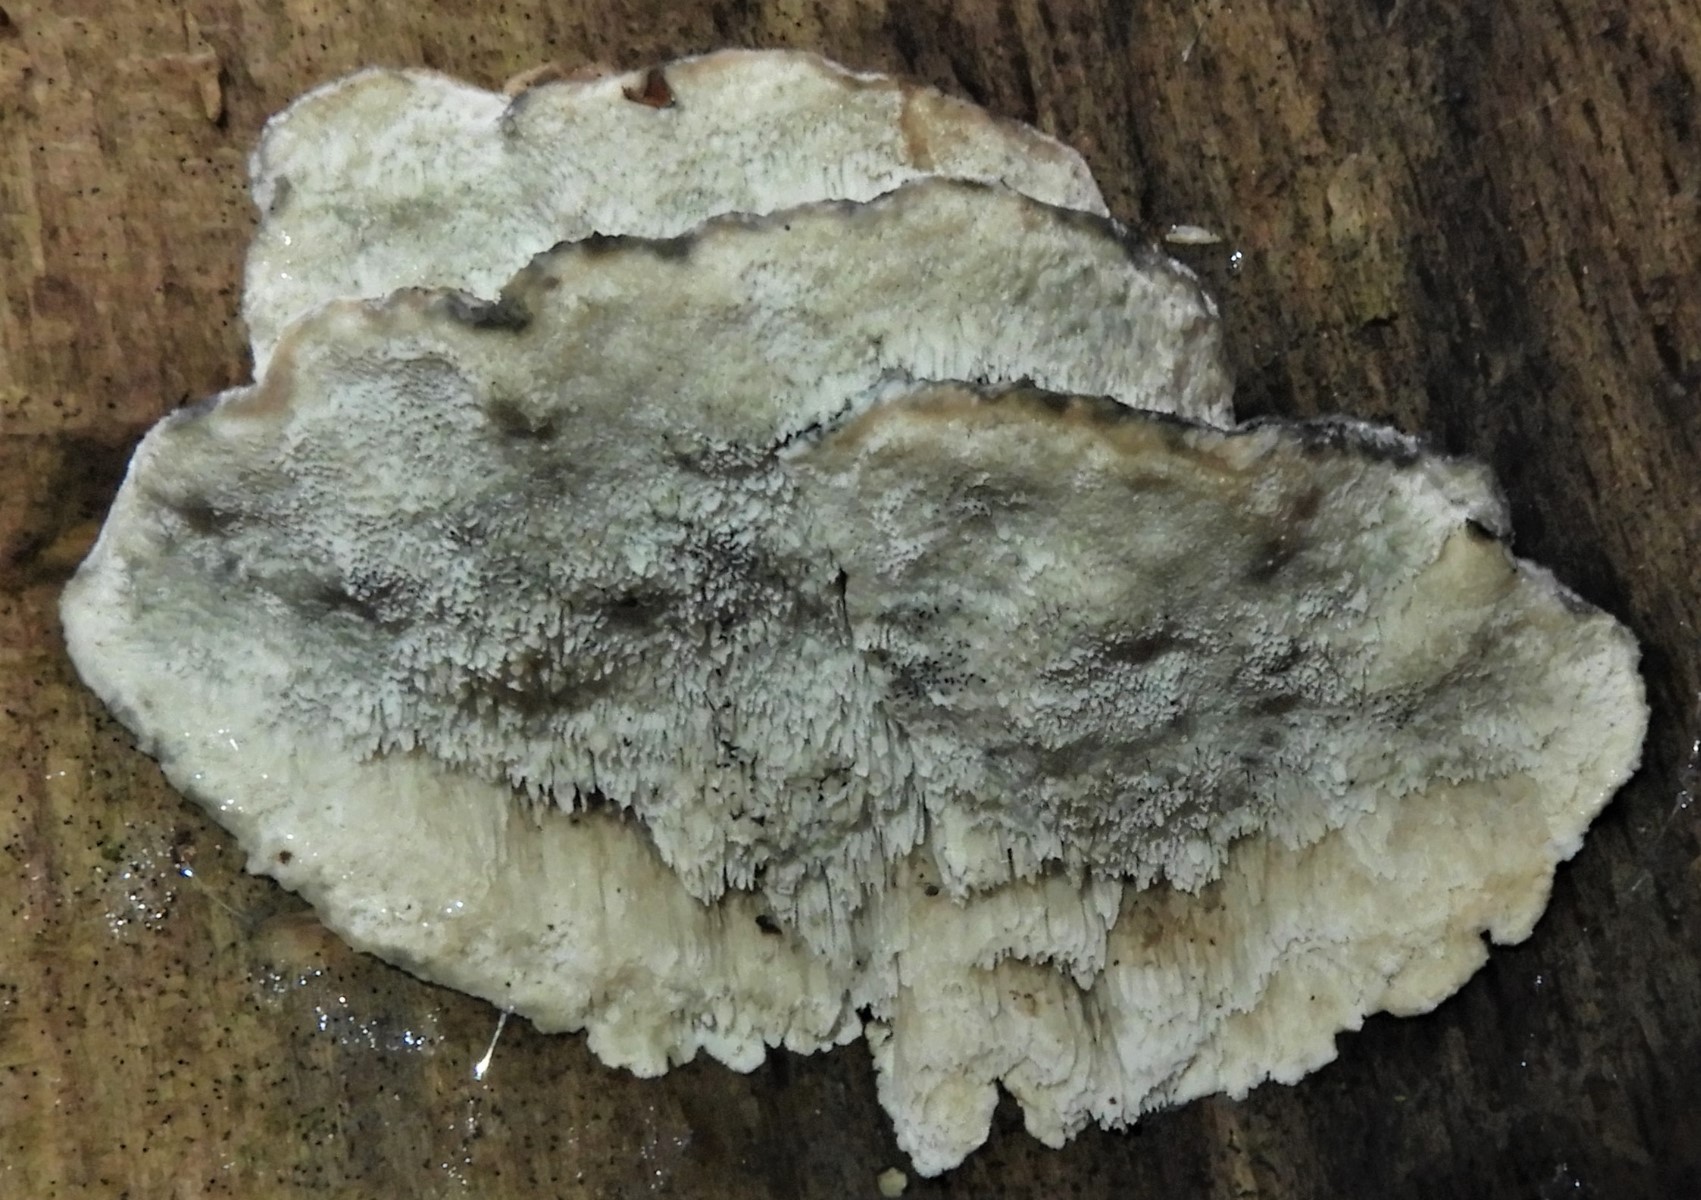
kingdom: Fungi
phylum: Basidiomycota
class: Agaricomycetes
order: Polyporales
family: Polyporaceae
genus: Cyanosporus
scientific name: Cyanosporus alni
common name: blegblå kødporesvamp
